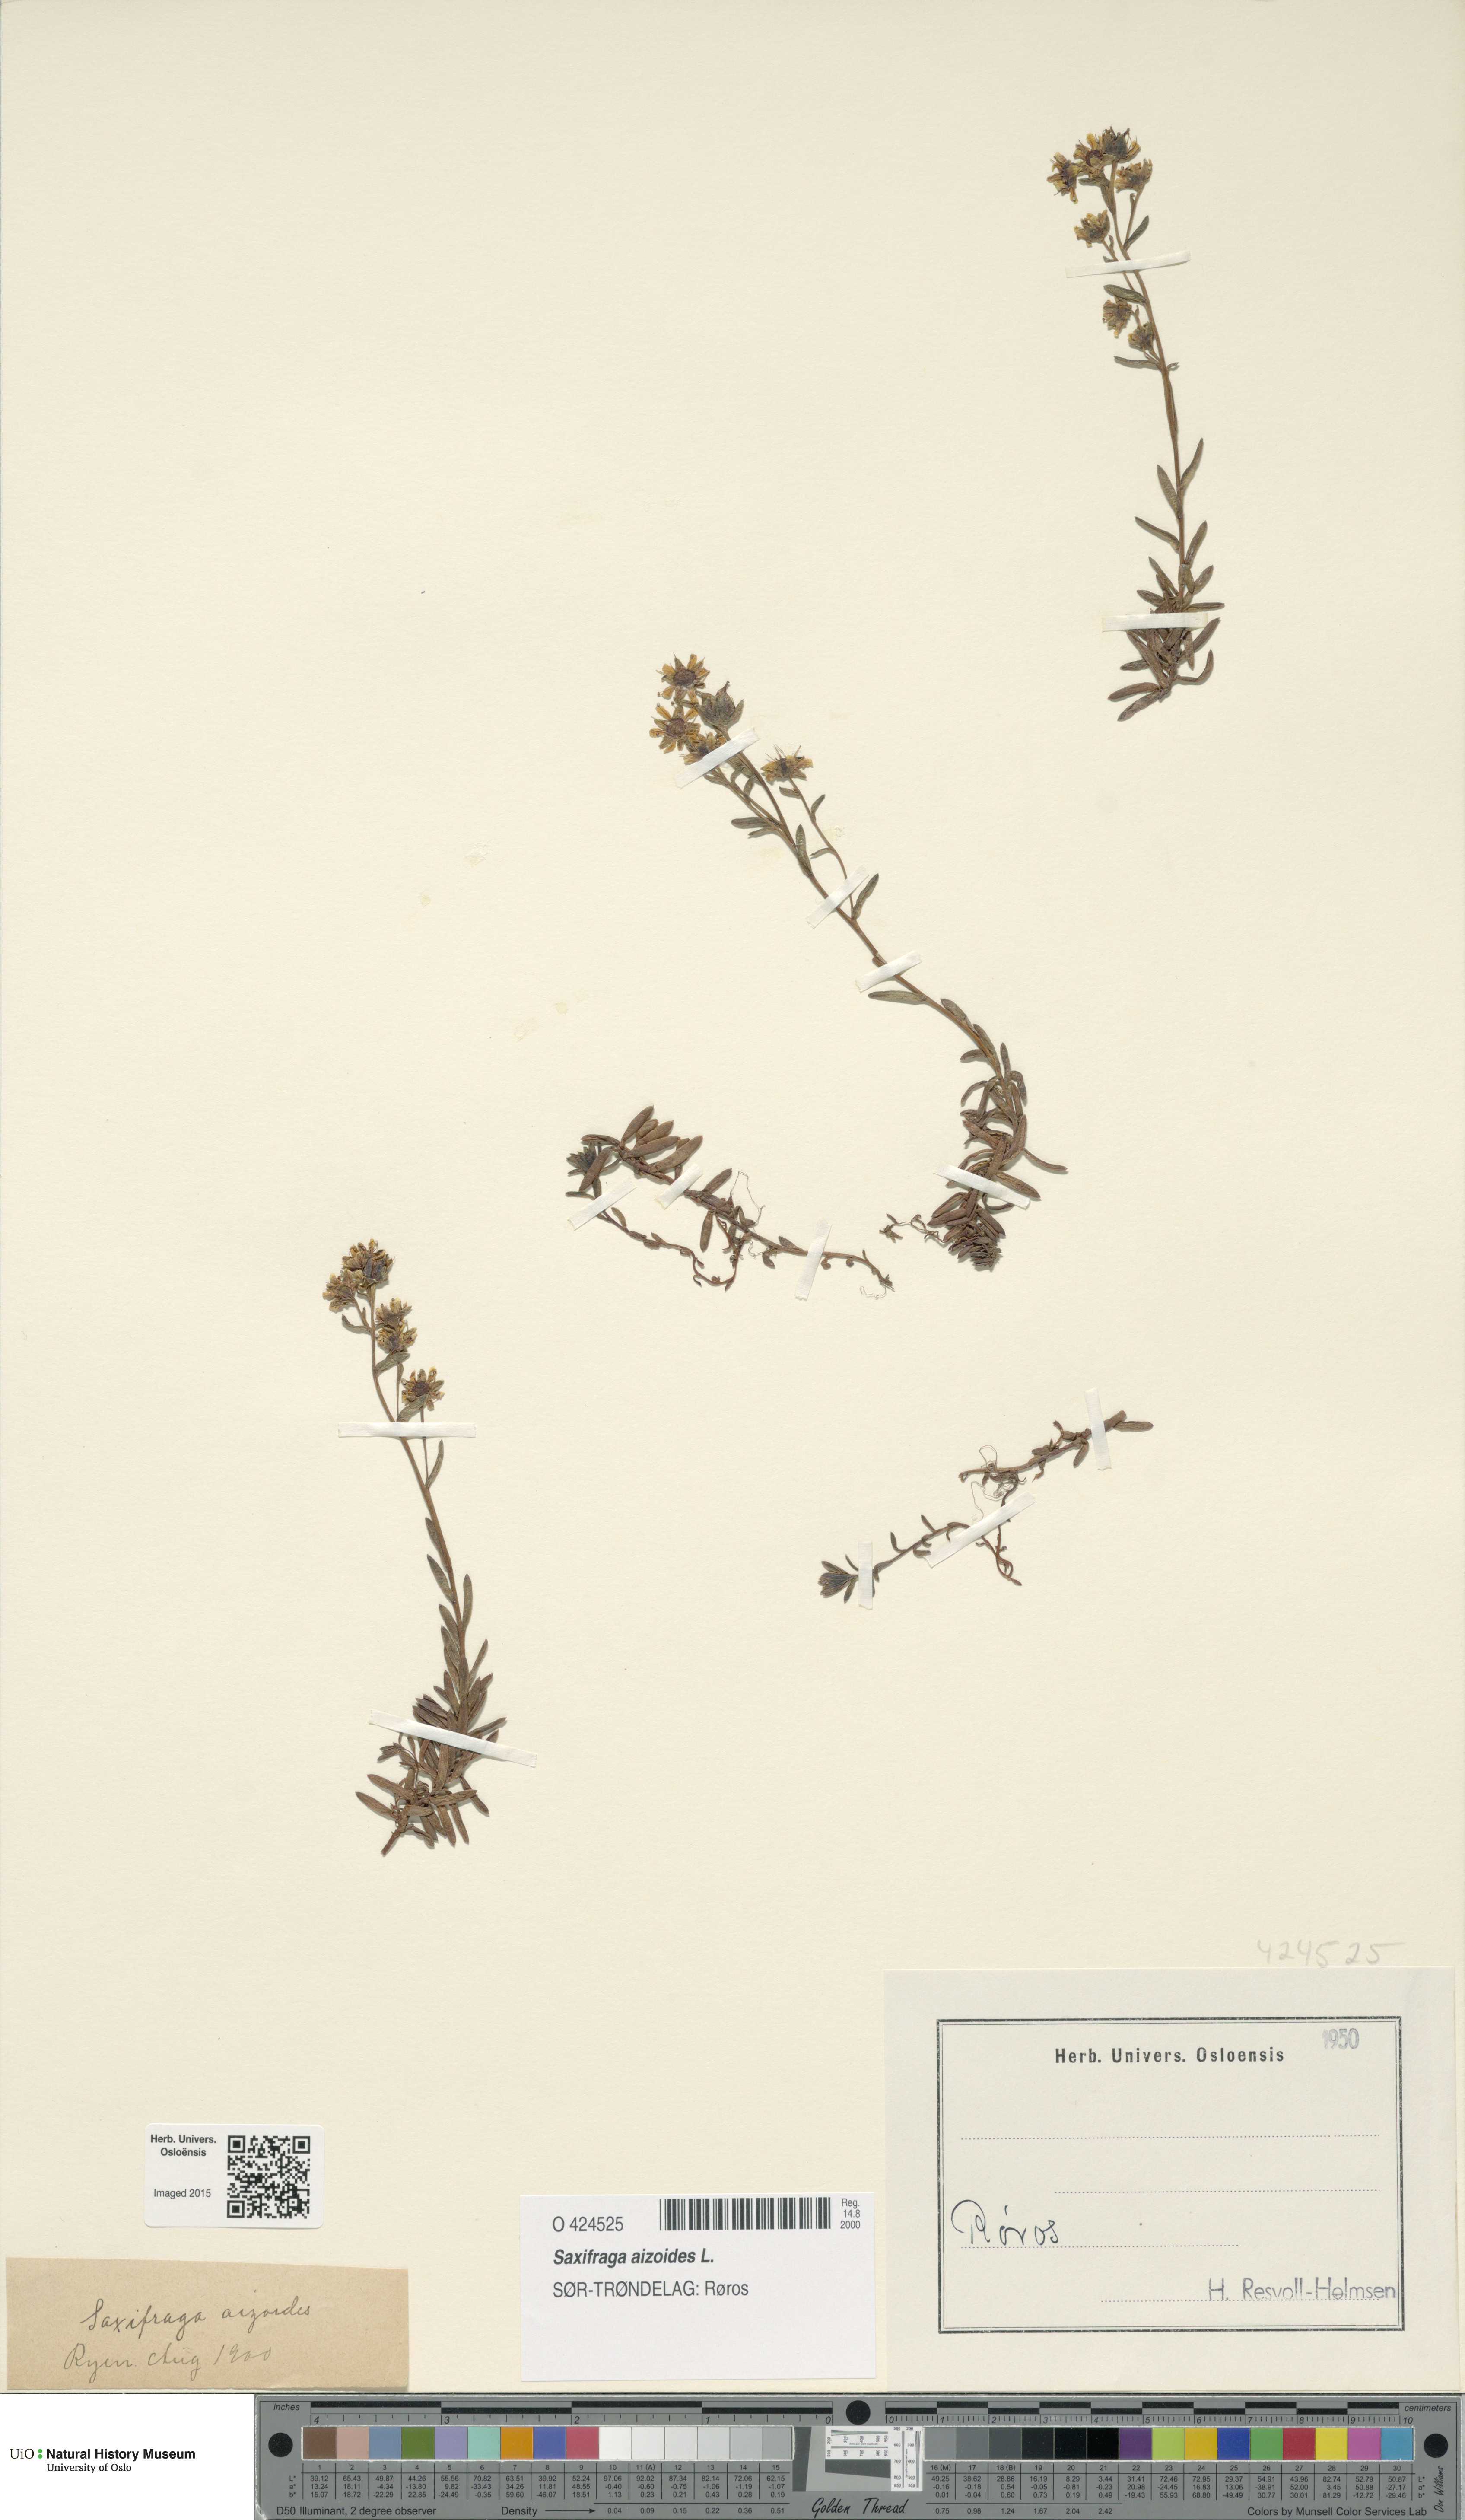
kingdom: Plantae
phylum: Tracheophyta
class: Magnoliopsida
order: Saxifragales
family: Saxifragaceae
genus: Saxifraga
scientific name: Saxifraga aizoides
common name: Yellow mountain saxifrage
